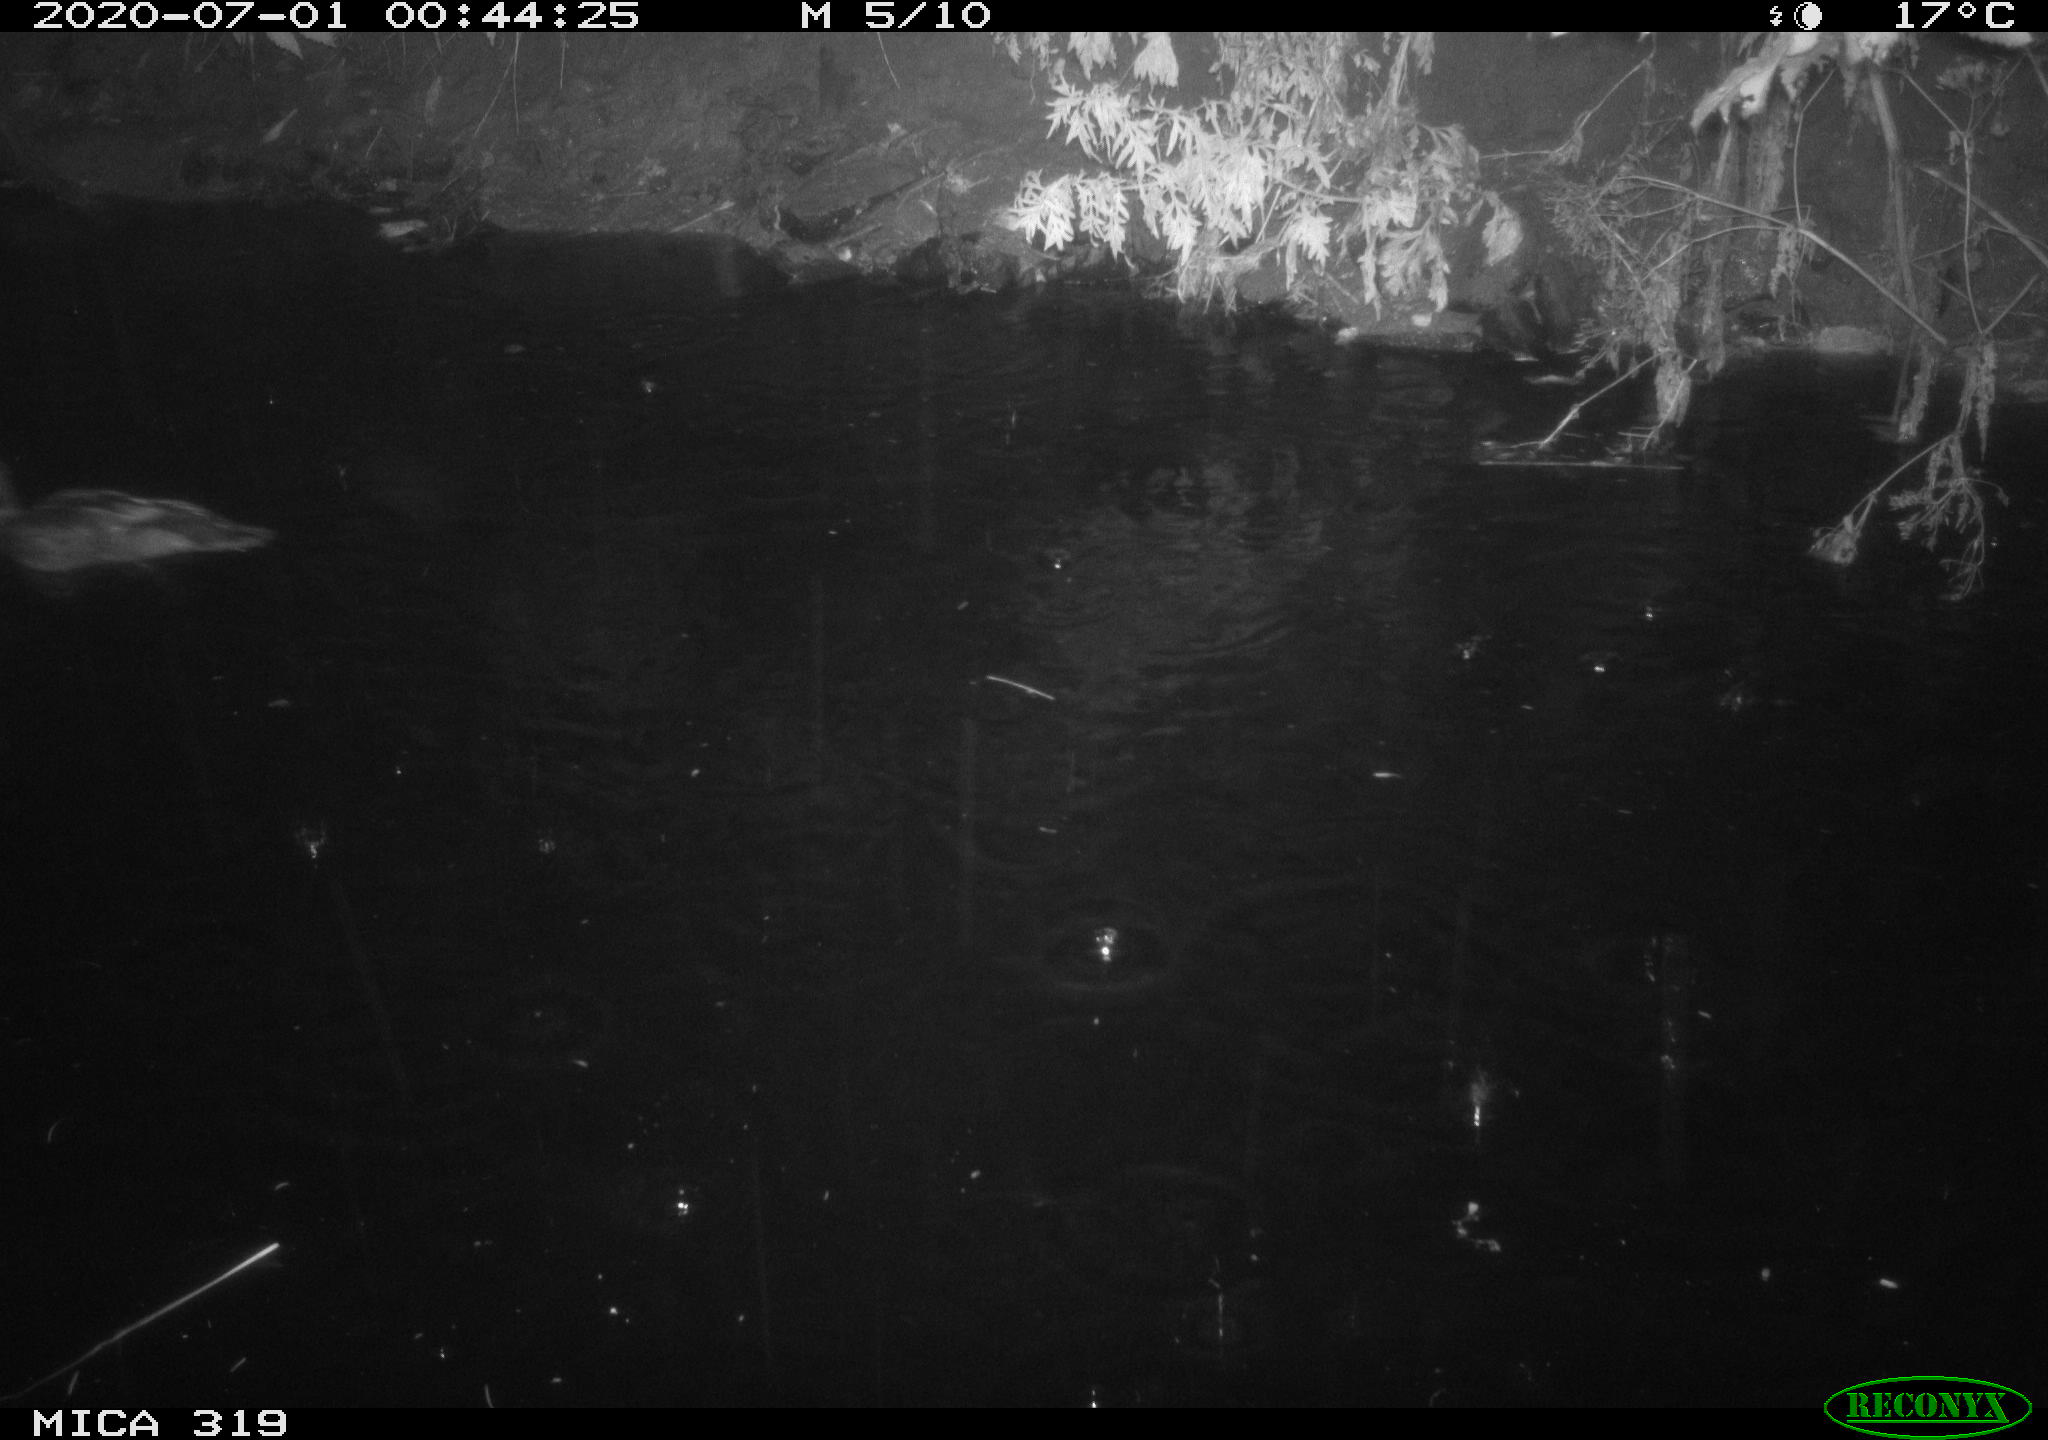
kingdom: Animalia
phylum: Chordata
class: Aves
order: Anseriformes
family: Anatidae
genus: Anas
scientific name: Anas platyrhynchos
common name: Mallard
